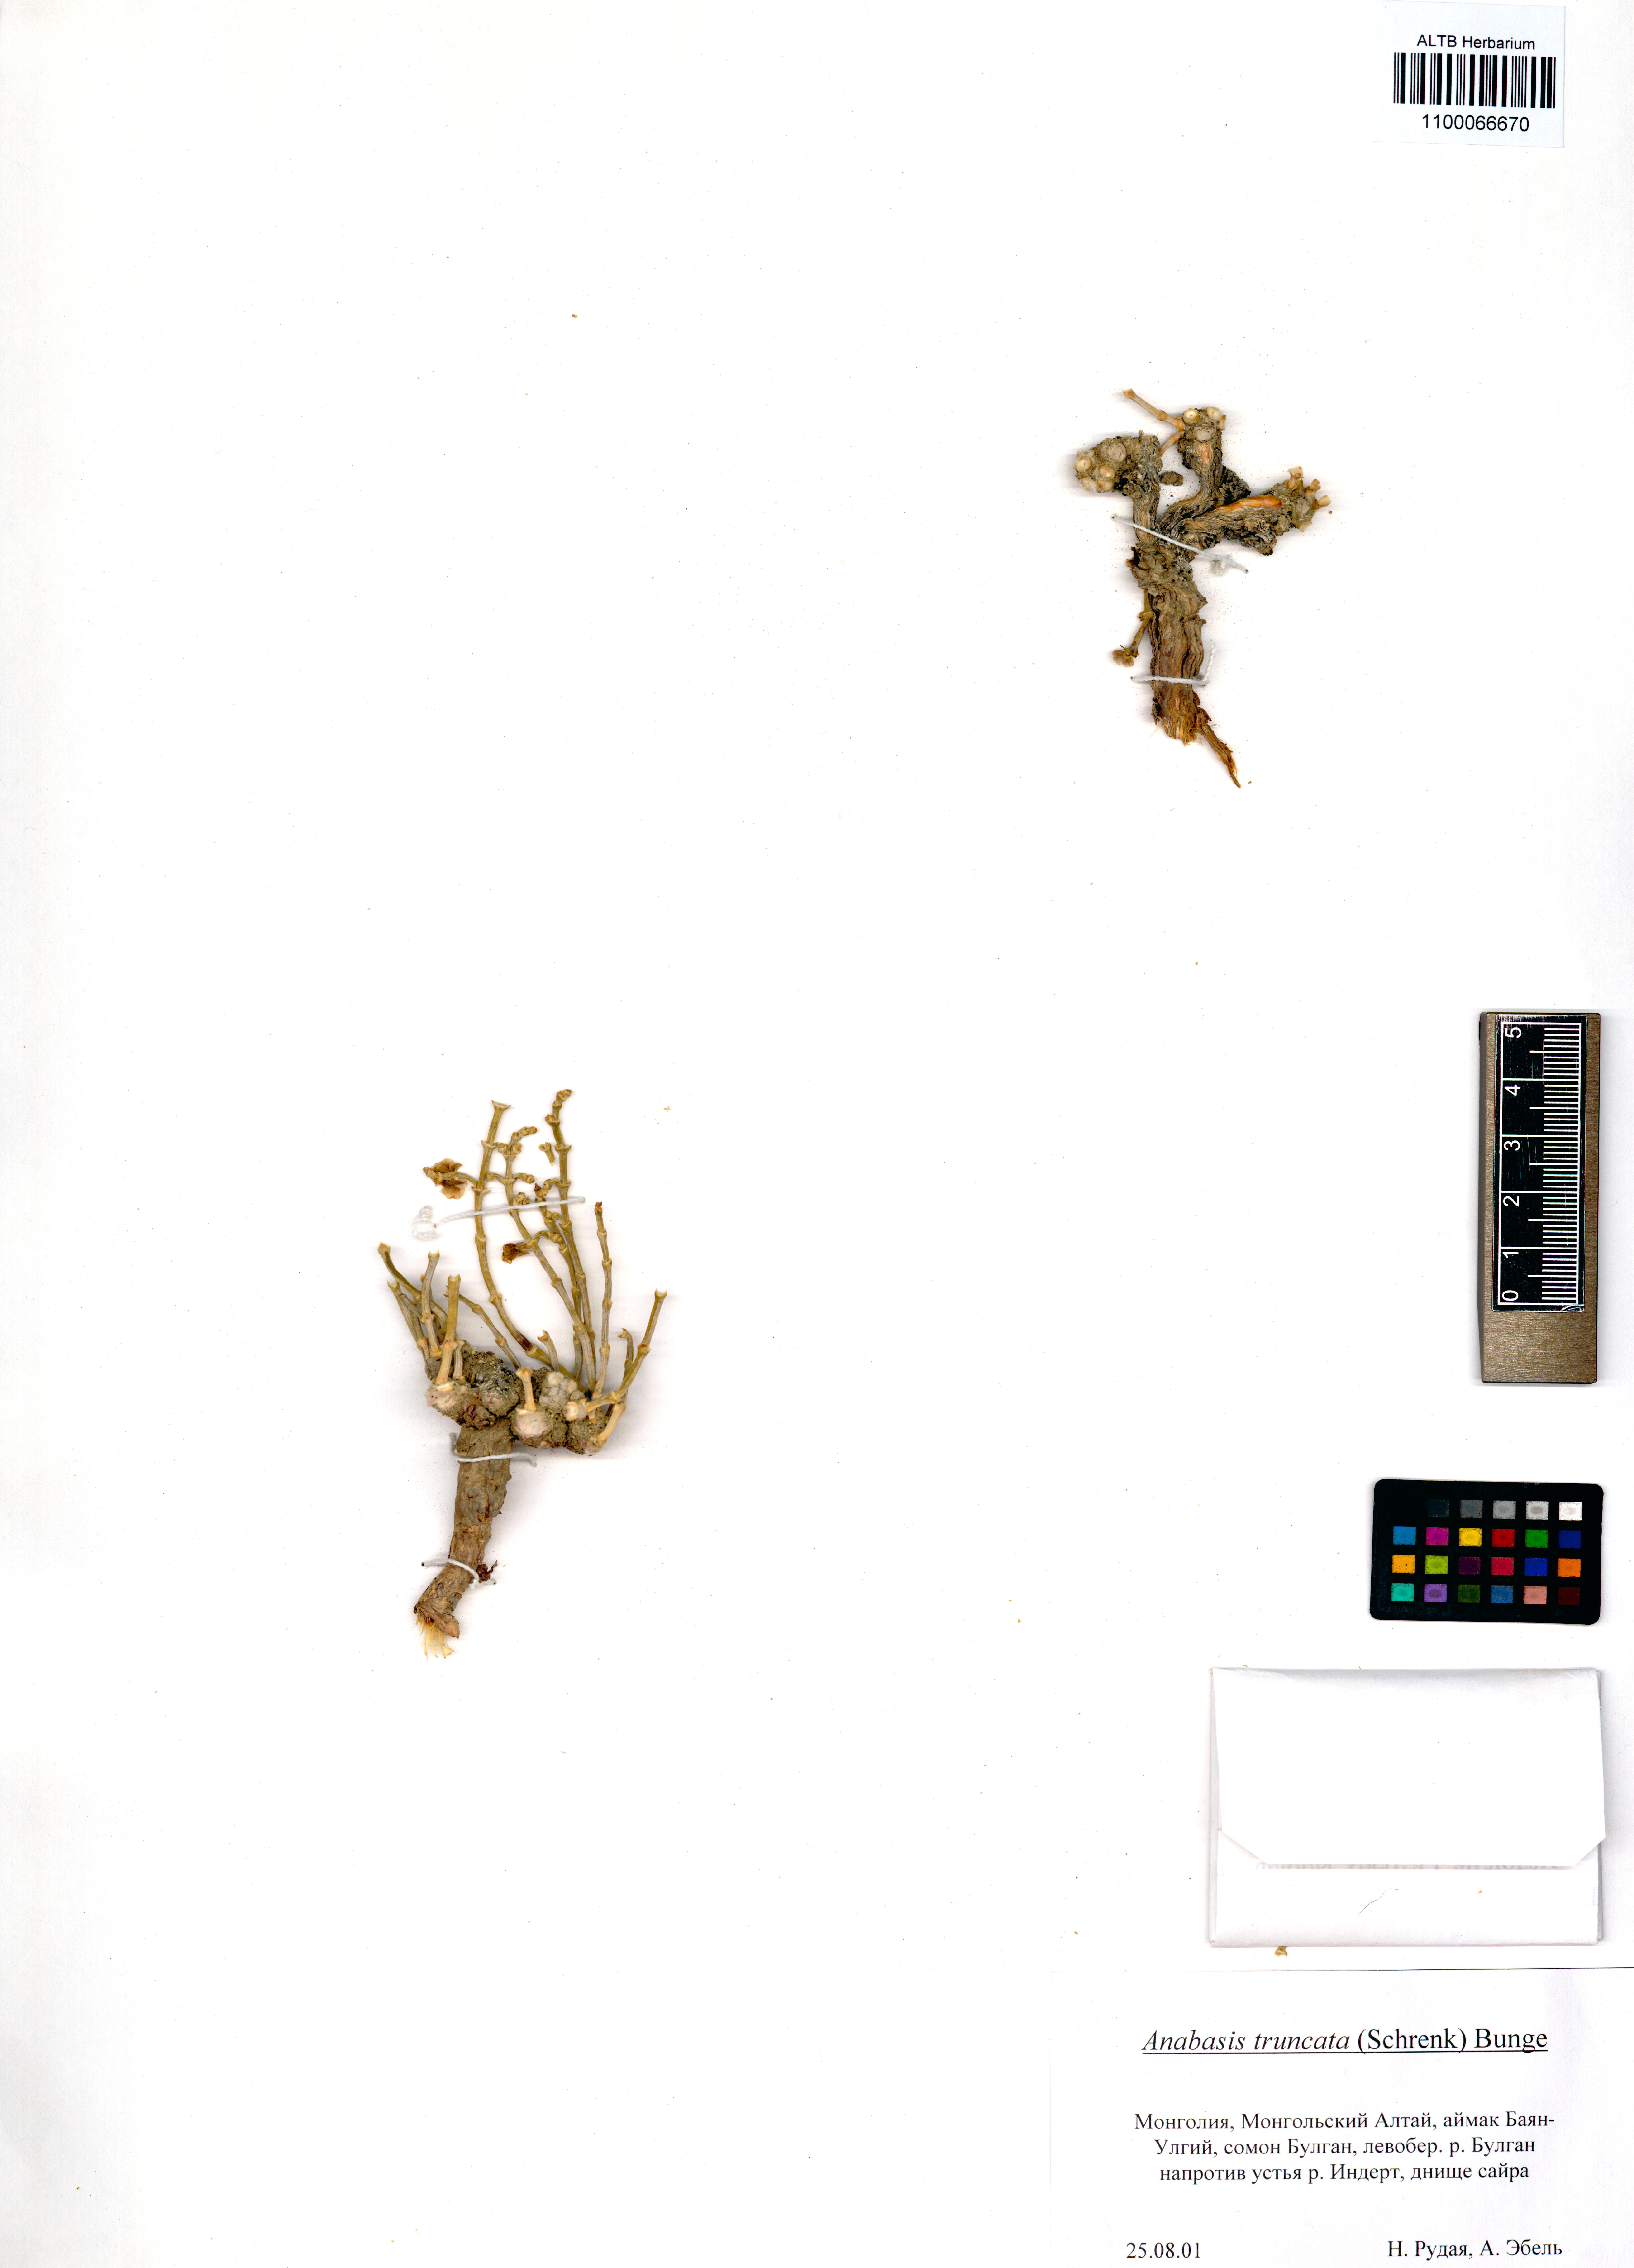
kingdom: Plantae
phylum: Tracheophyta
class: Magnoliopsida
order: Caryophyllales
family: Amaranthaceae
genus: Anabasis
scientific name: Anabasis truncata
